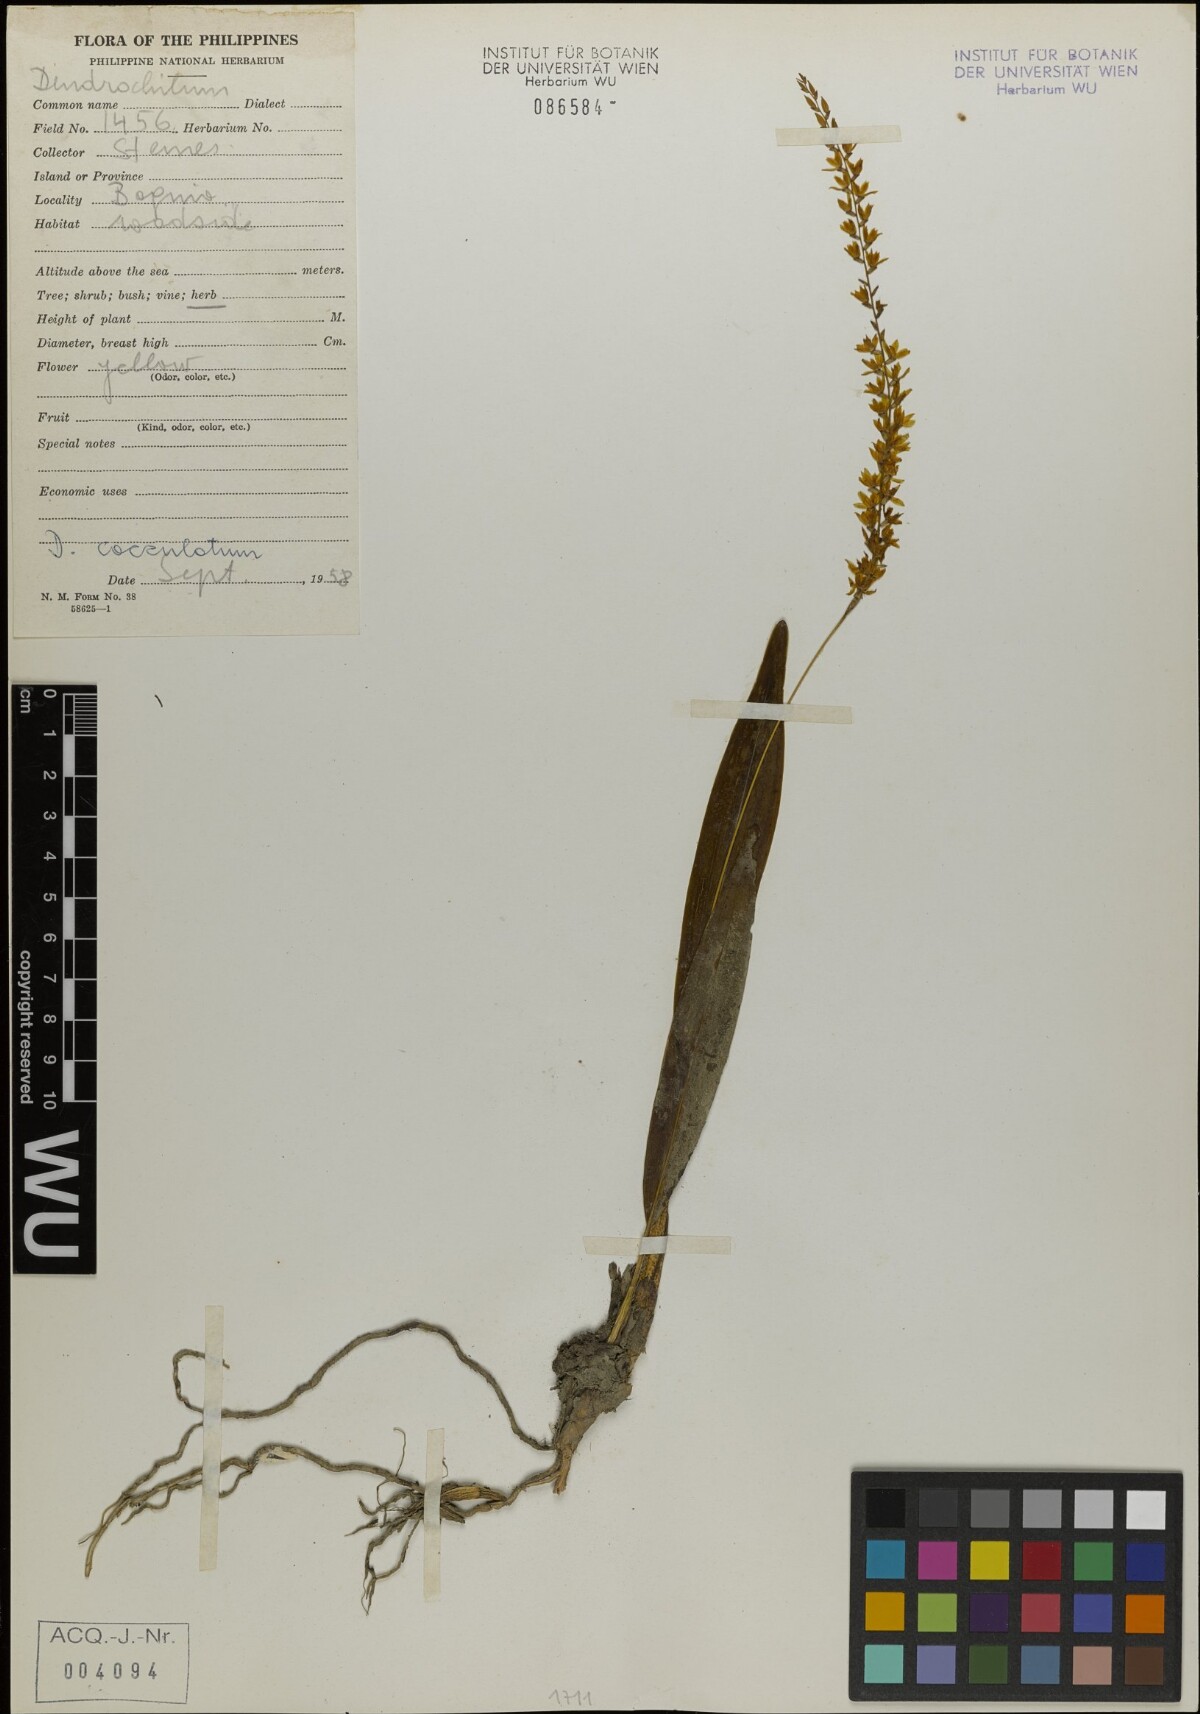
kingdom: Plantae
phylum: Tracheophyta
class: Liliopsida
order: Asparagales
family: Orchidaceae
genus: Coelogyne
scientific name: Coelogyne graciliscapa
